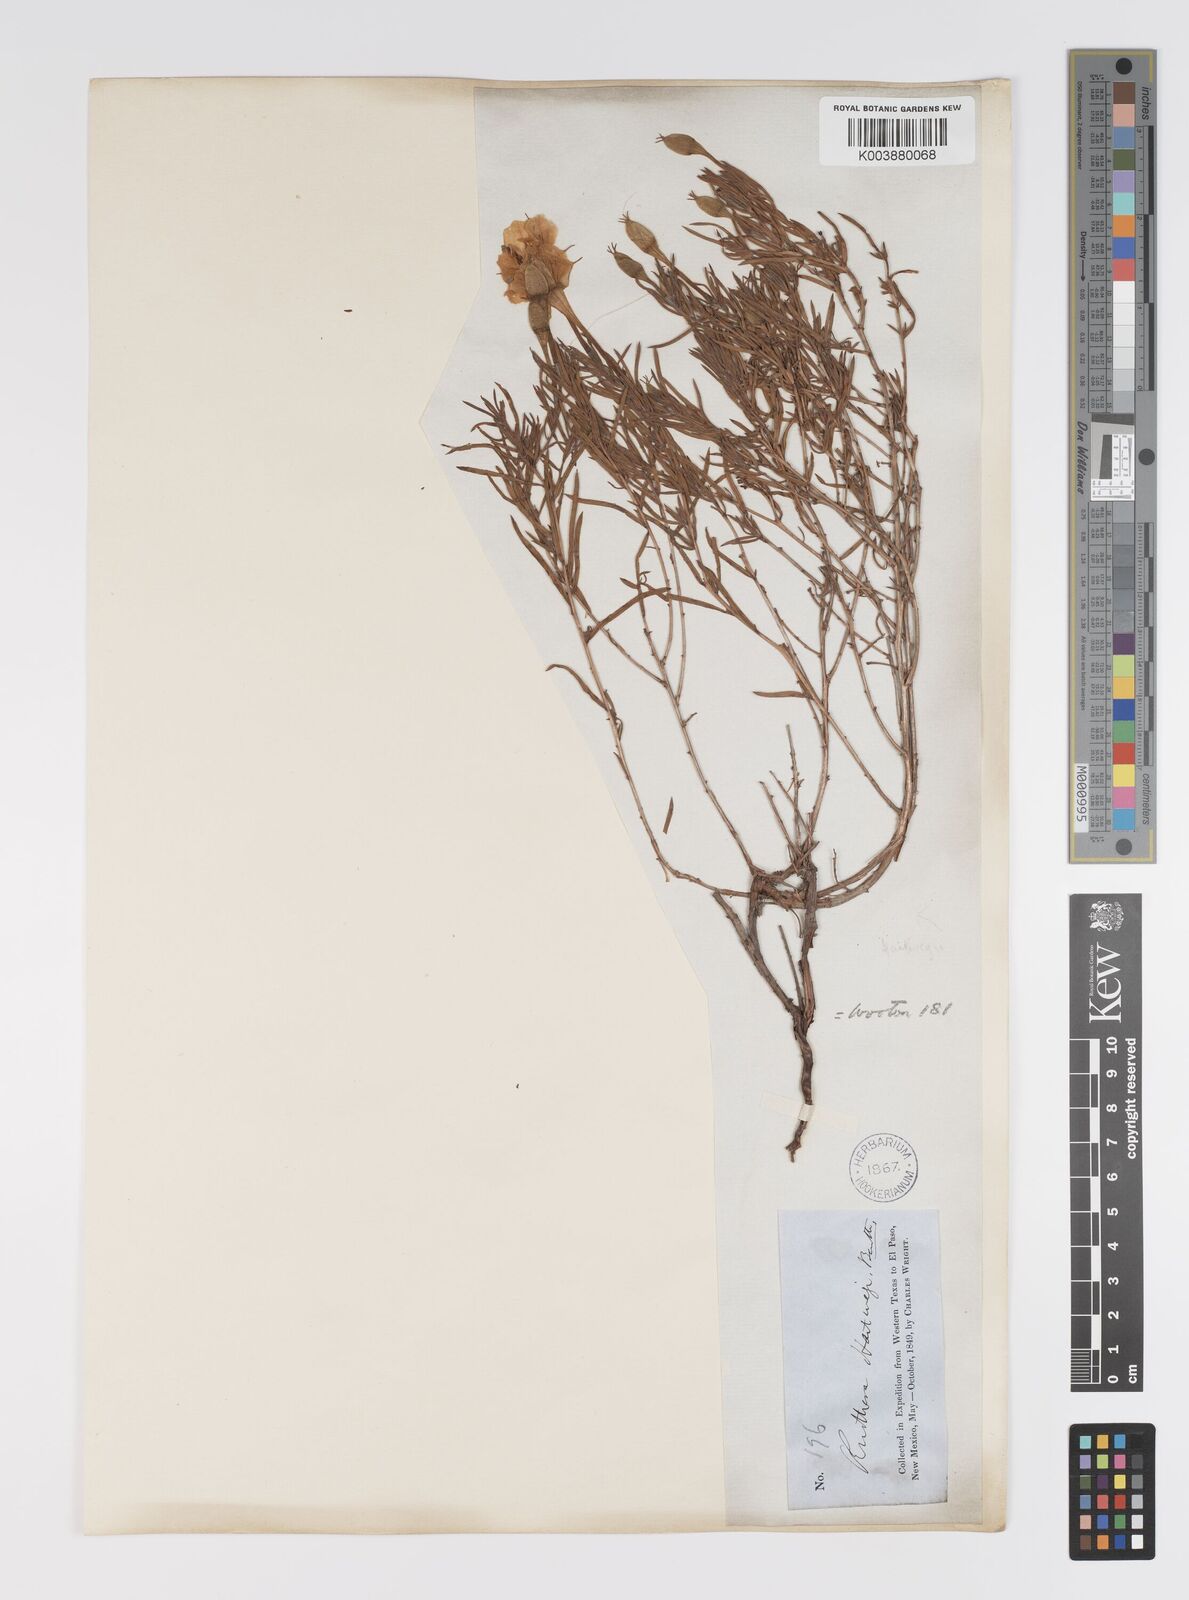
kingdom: Plantae
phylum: Tracheophyta
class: Magnoliopsida
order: Myrtales
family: Onagraceae
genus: Oenothera
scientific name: Oenothera hartwegii
